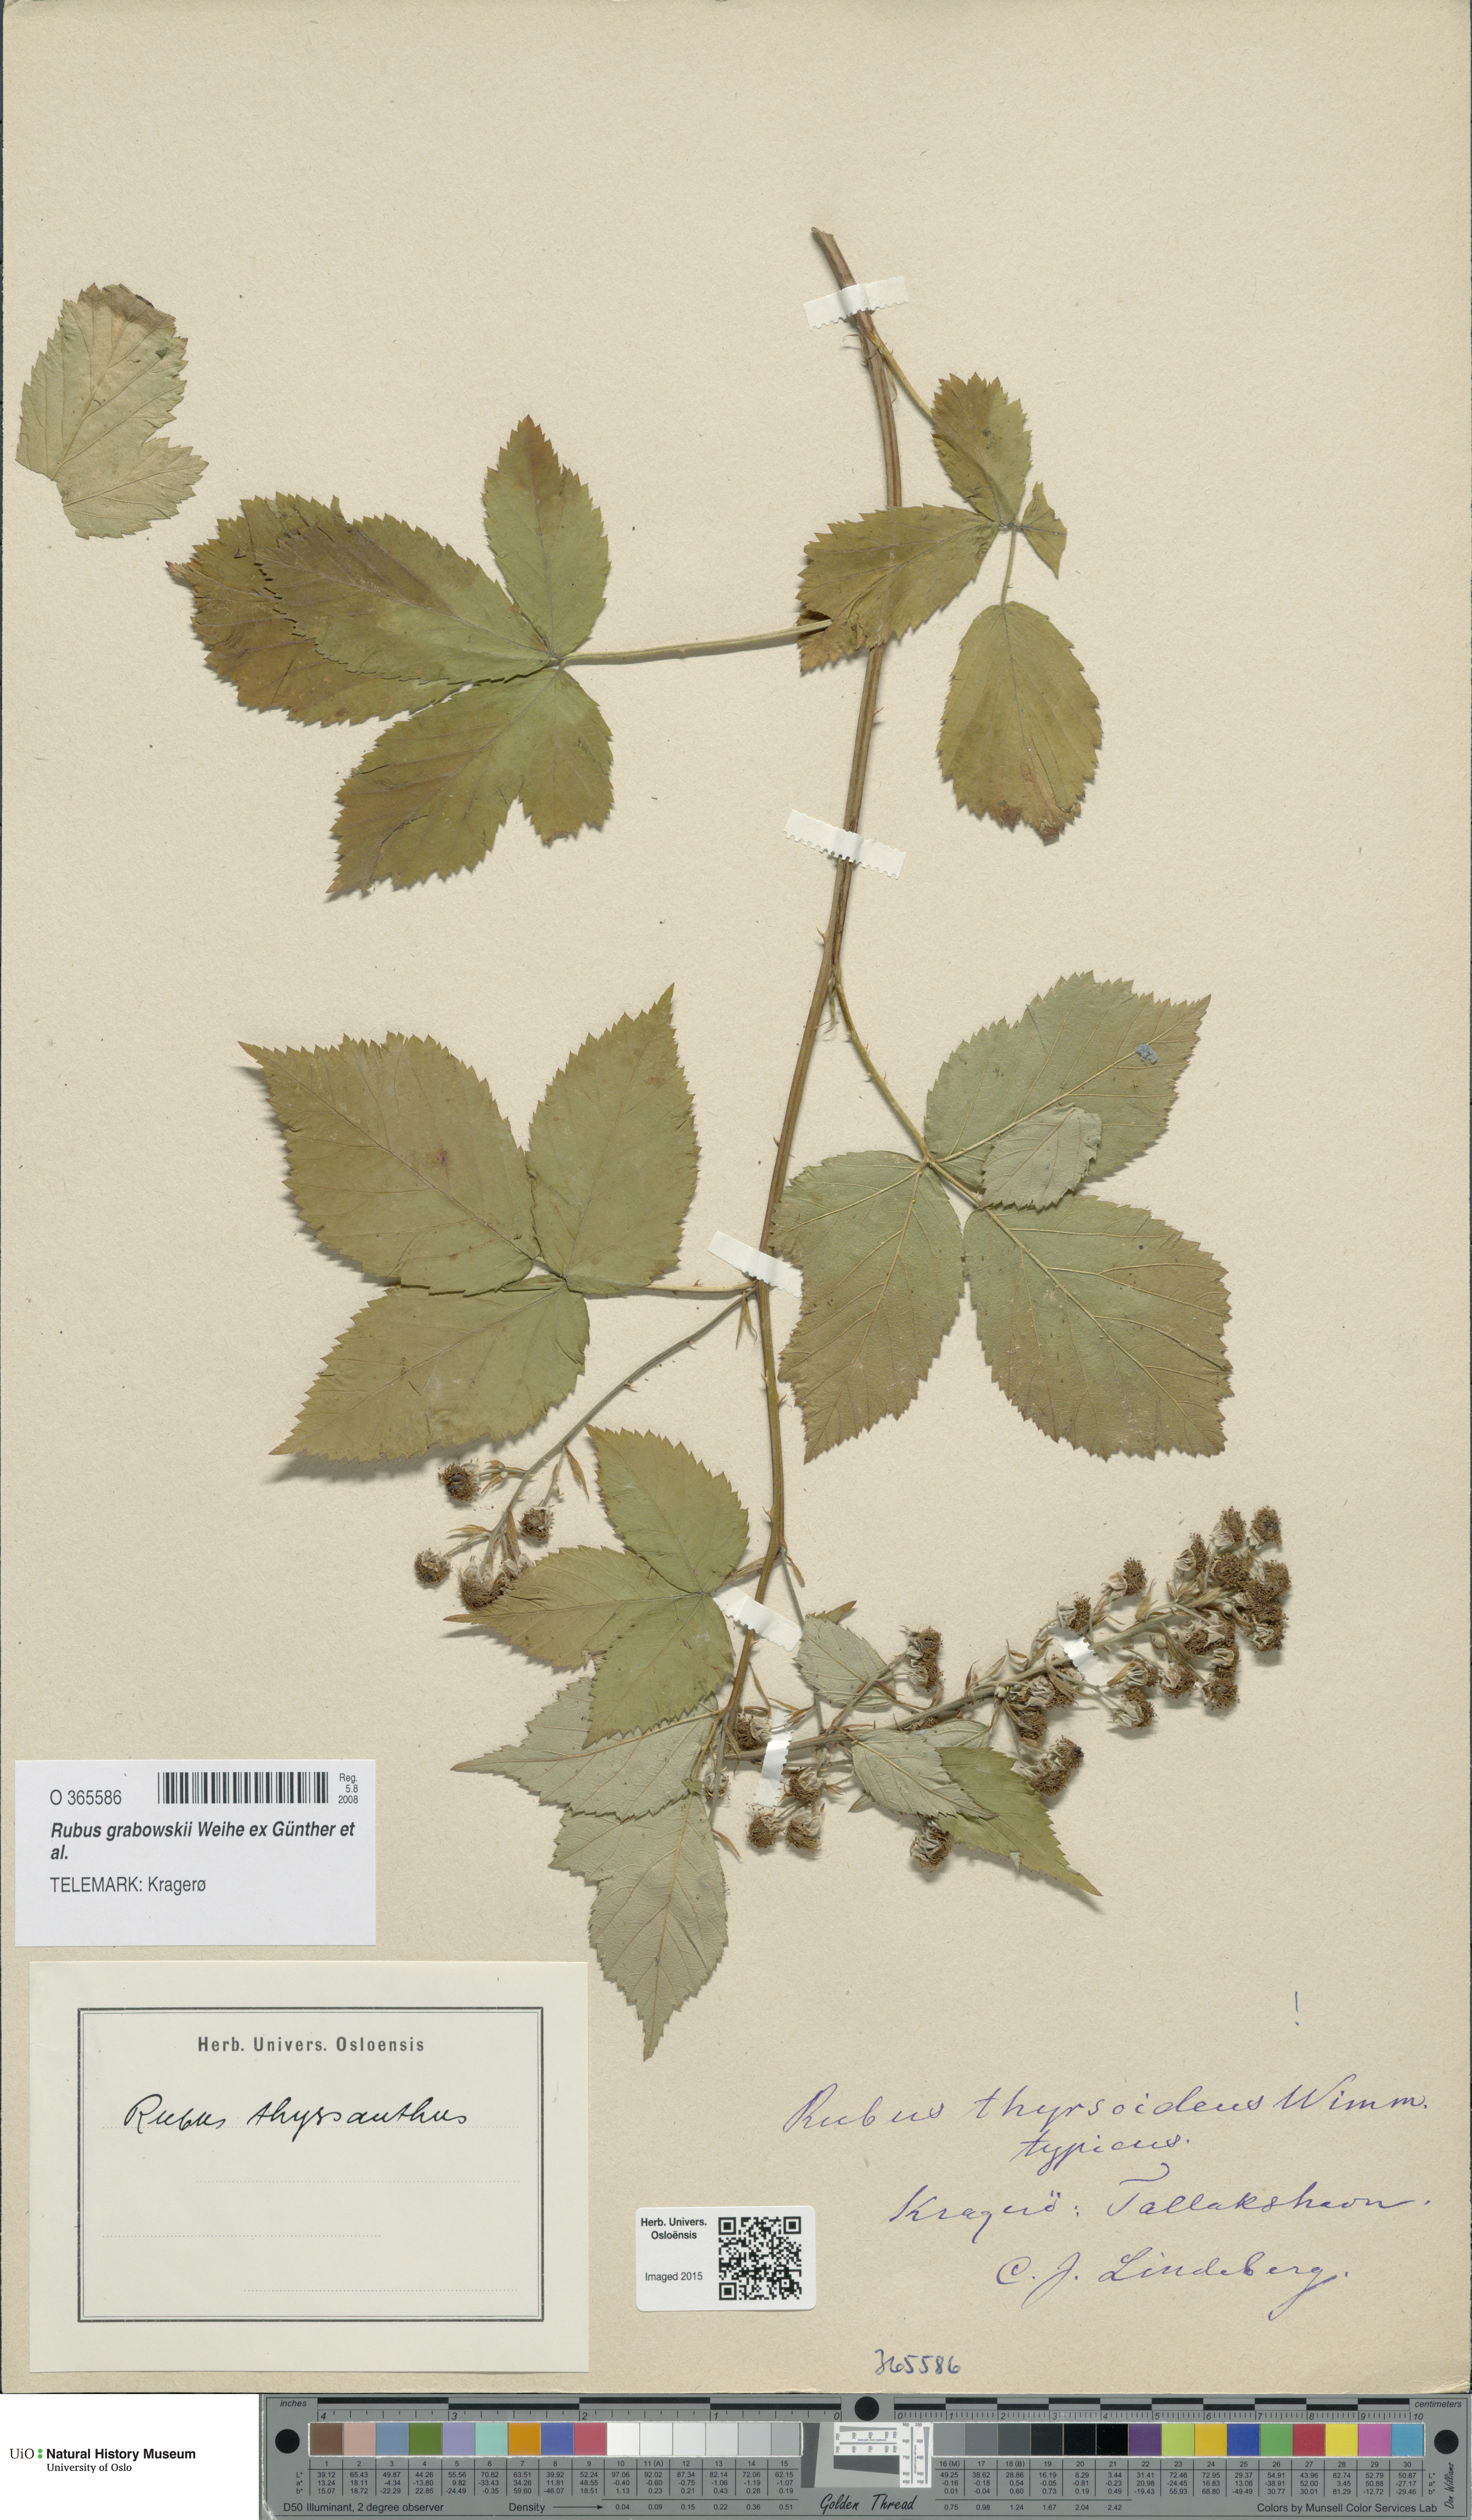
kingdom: Plantae
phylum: Tracheophyta
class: Magnoliopsida
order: Rosales
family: Rosaceae
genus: Rubus
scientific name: Rubus grabowskii
